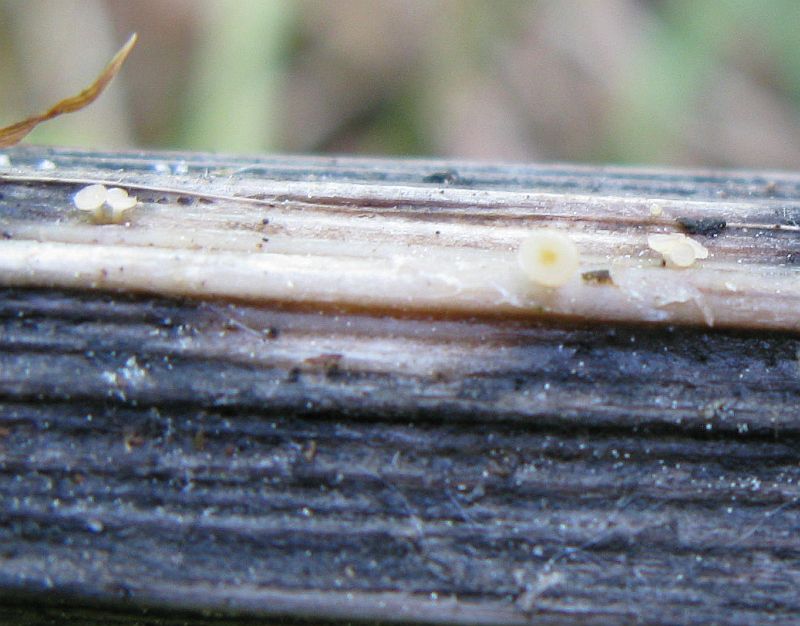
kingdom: Fungi
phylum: Ascomycota
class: Leotiomycetes
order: Helotiales
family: Helotiaceae
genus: Cyathicula
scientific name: Cyathicula cyathoidea
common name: pokal-stilkskive
